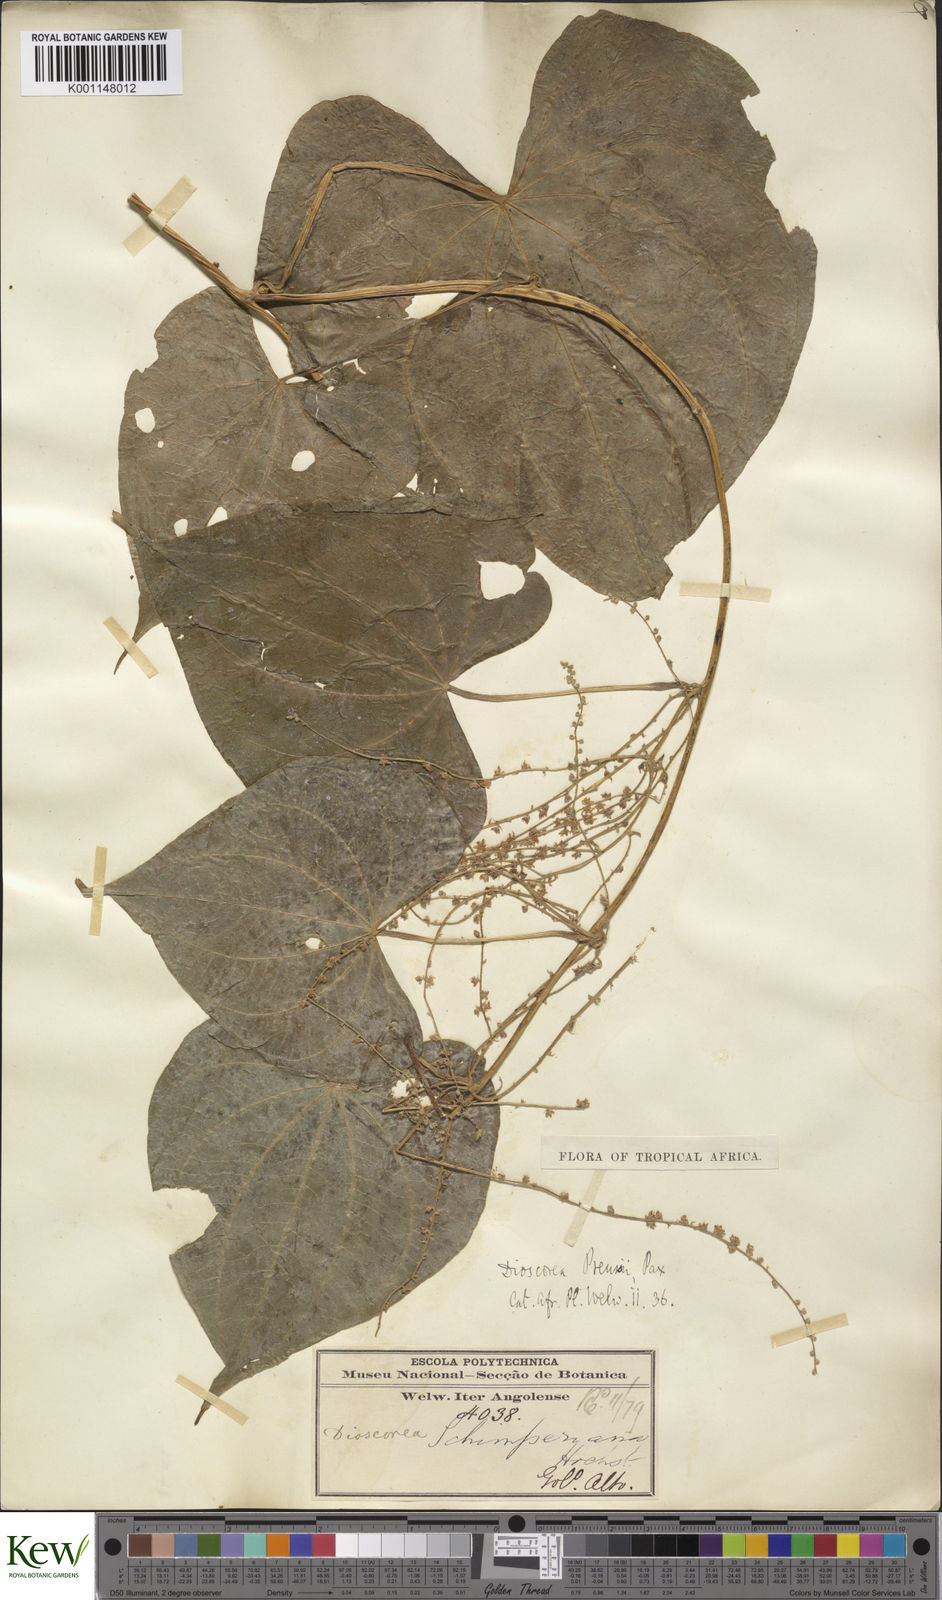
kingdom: Plantae
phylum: Tracheophyta
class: Liliopsida
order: Dioscoreales
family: Dioscoreaceae
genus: Dioscorea
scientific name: Dioscorea preussii
